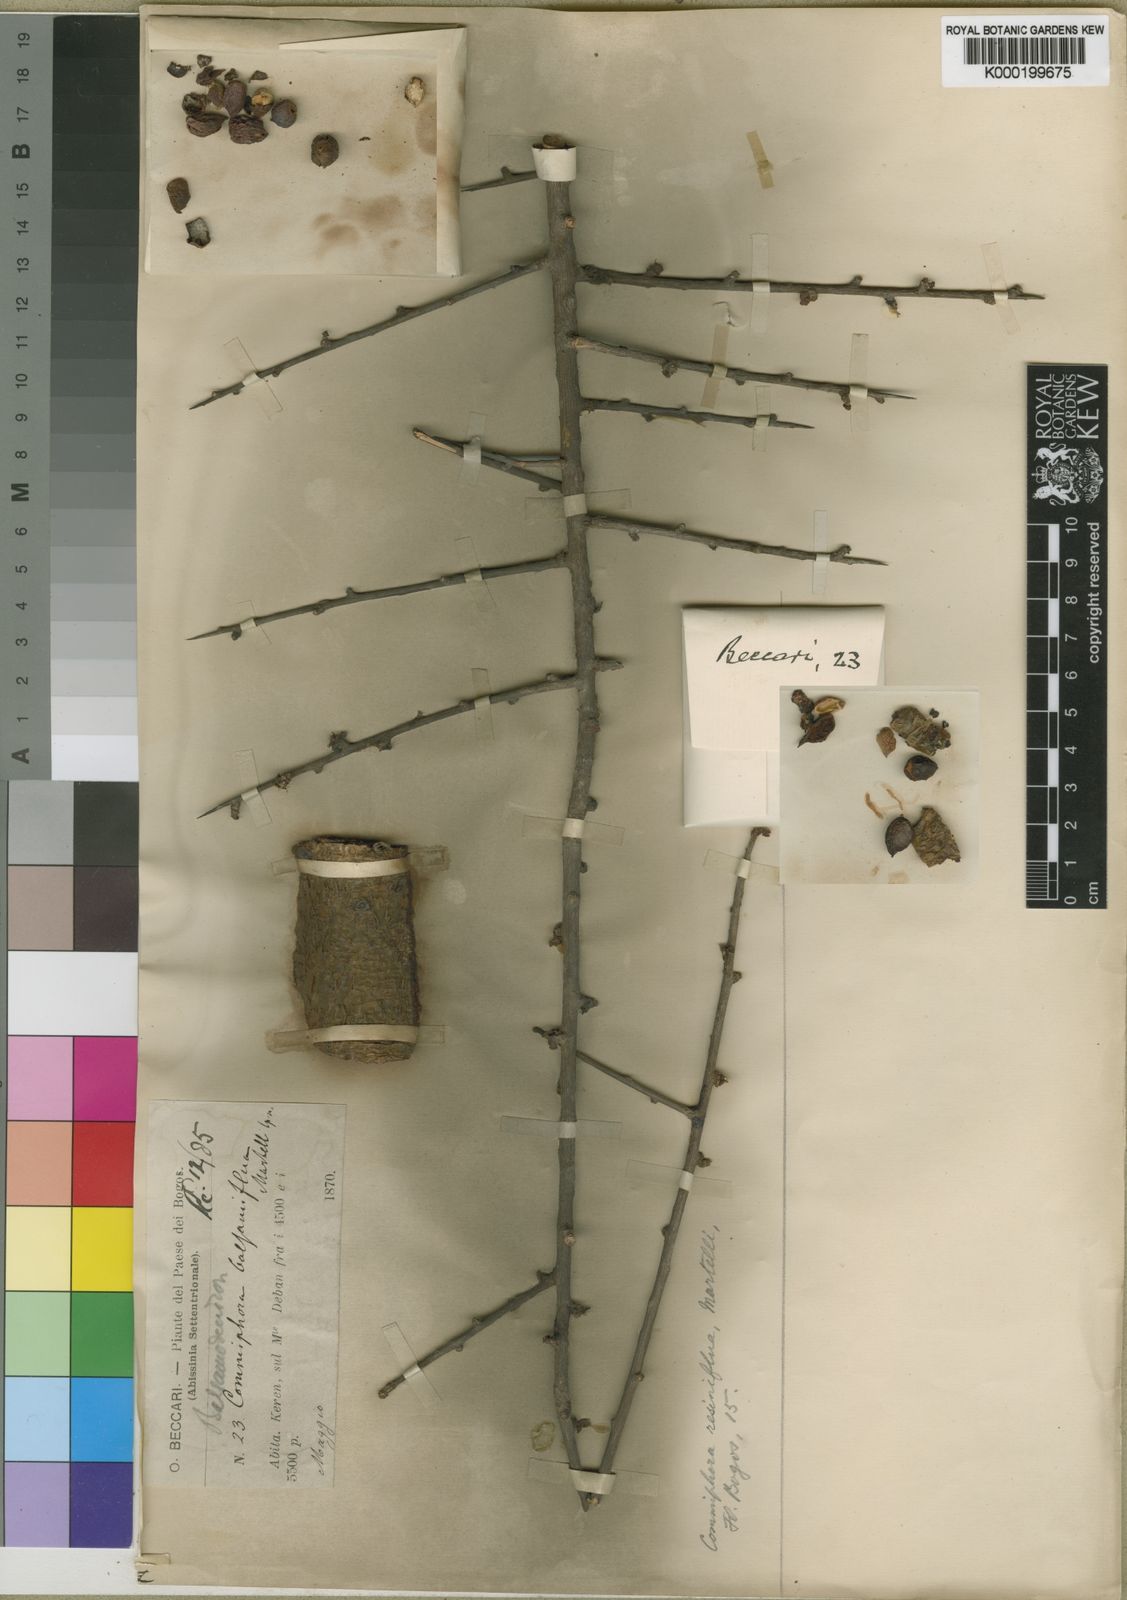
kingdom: Plantae
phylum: Tracheophyta
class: Magnoliopsida
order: Sapindales
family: Burseraceae
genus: Commiphora
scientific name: Commiphora schimperi
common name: Glossy-leaved corkwood
